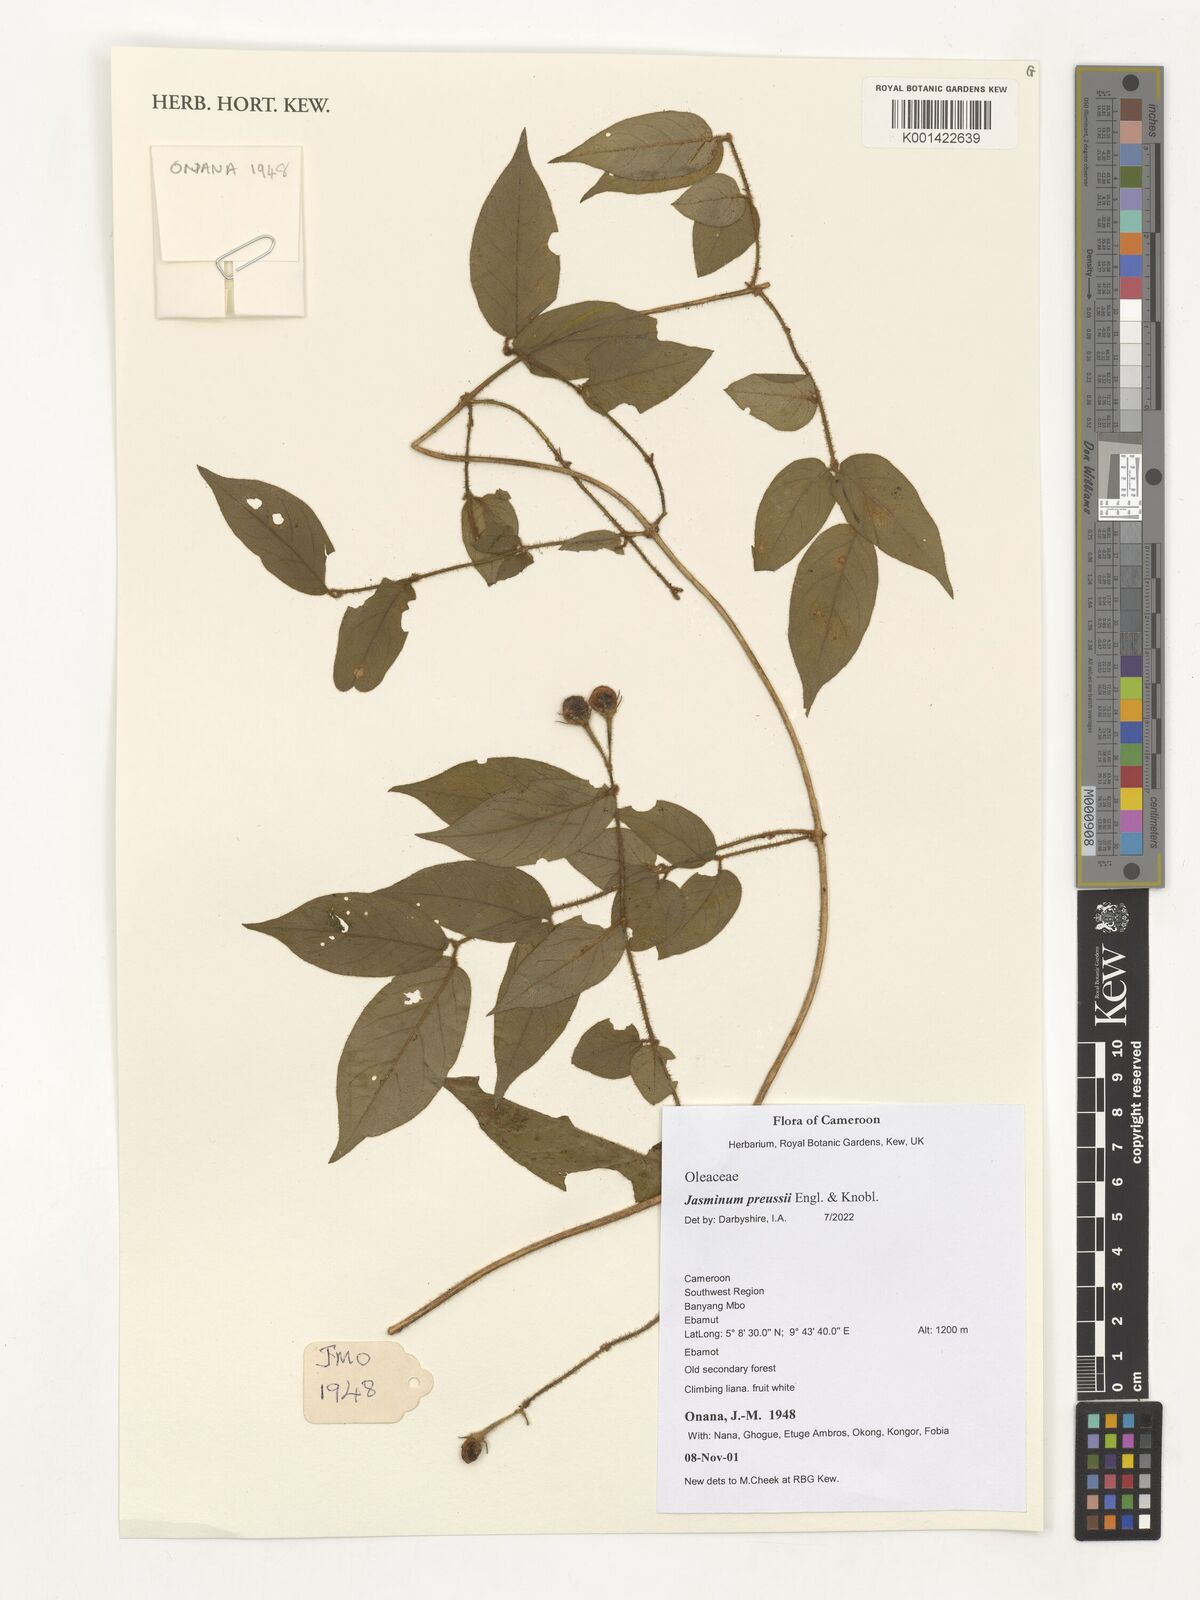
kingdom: Plantae
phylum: Tracheophyta
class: Magnoliopsida
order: Lamiales
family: Oleaceae
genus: Jasminum
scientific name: Jasminum preussii
